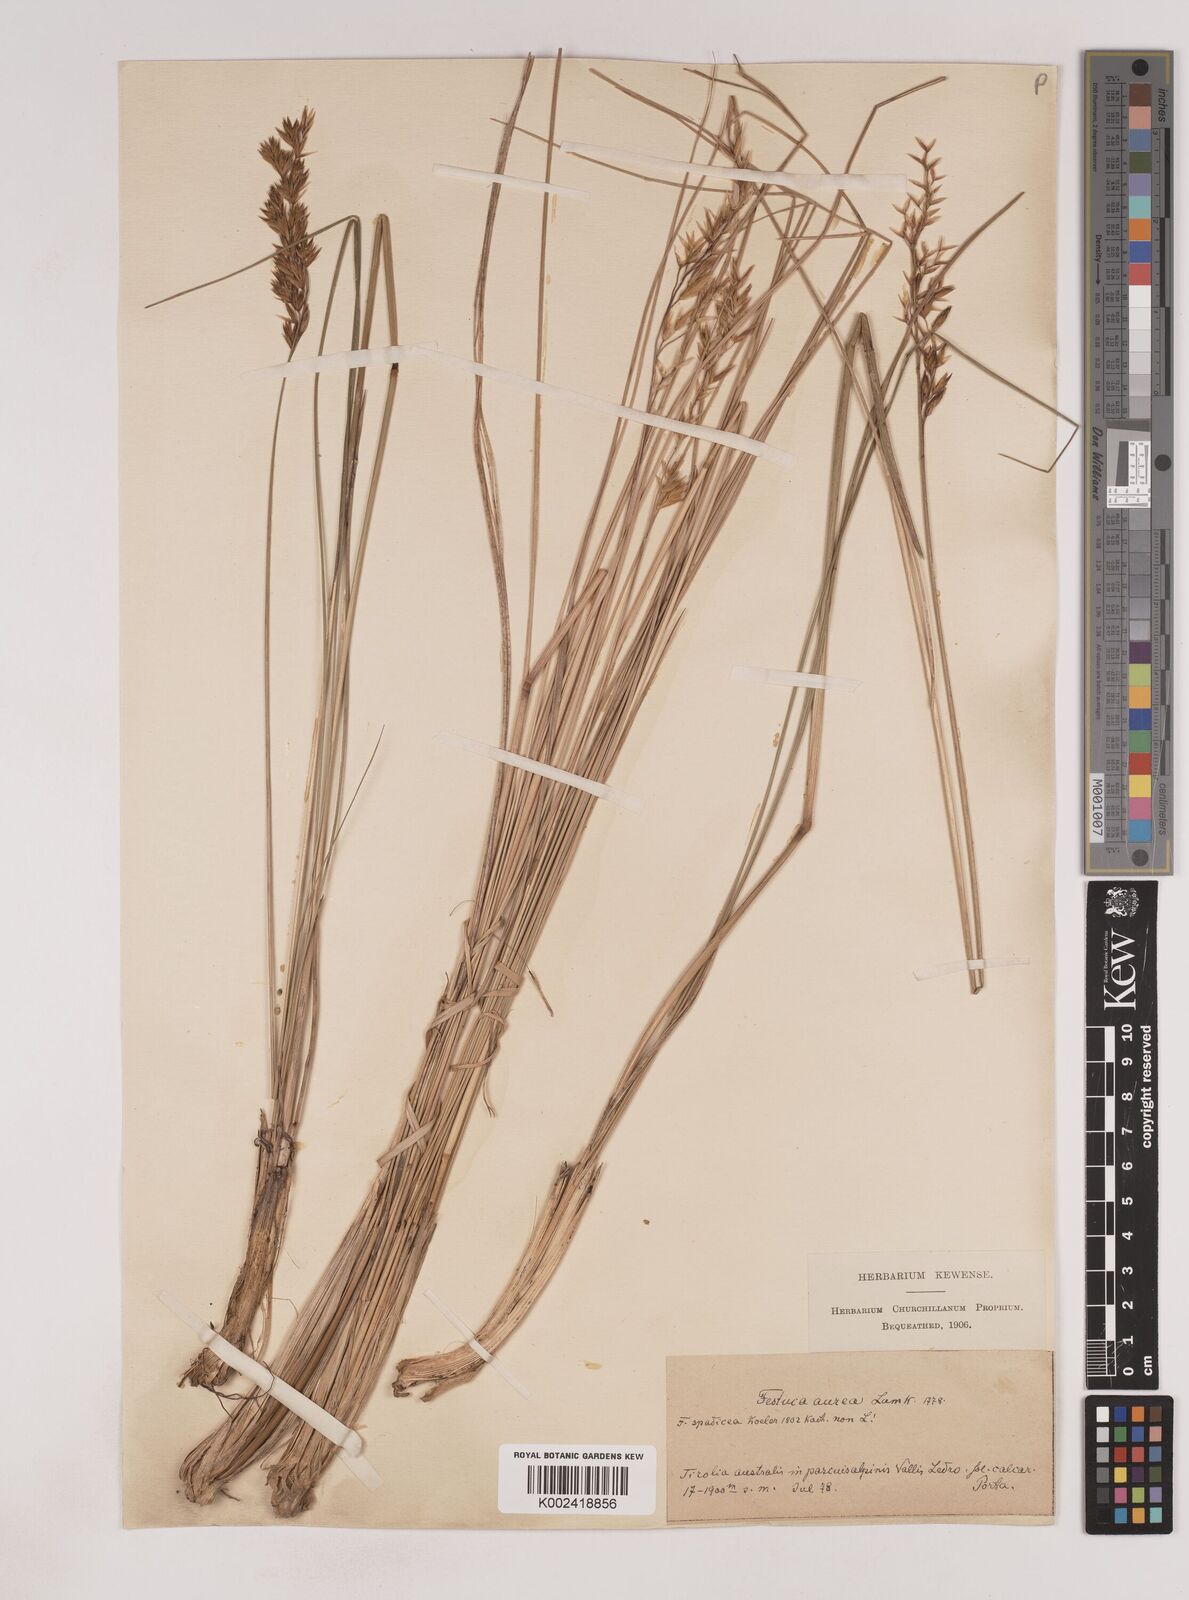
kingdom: Plantae
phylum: Tracheophyta
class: Liliopsida
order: Poales
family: Poaceae
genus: Patzkea
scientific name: Patzkea paniculata
